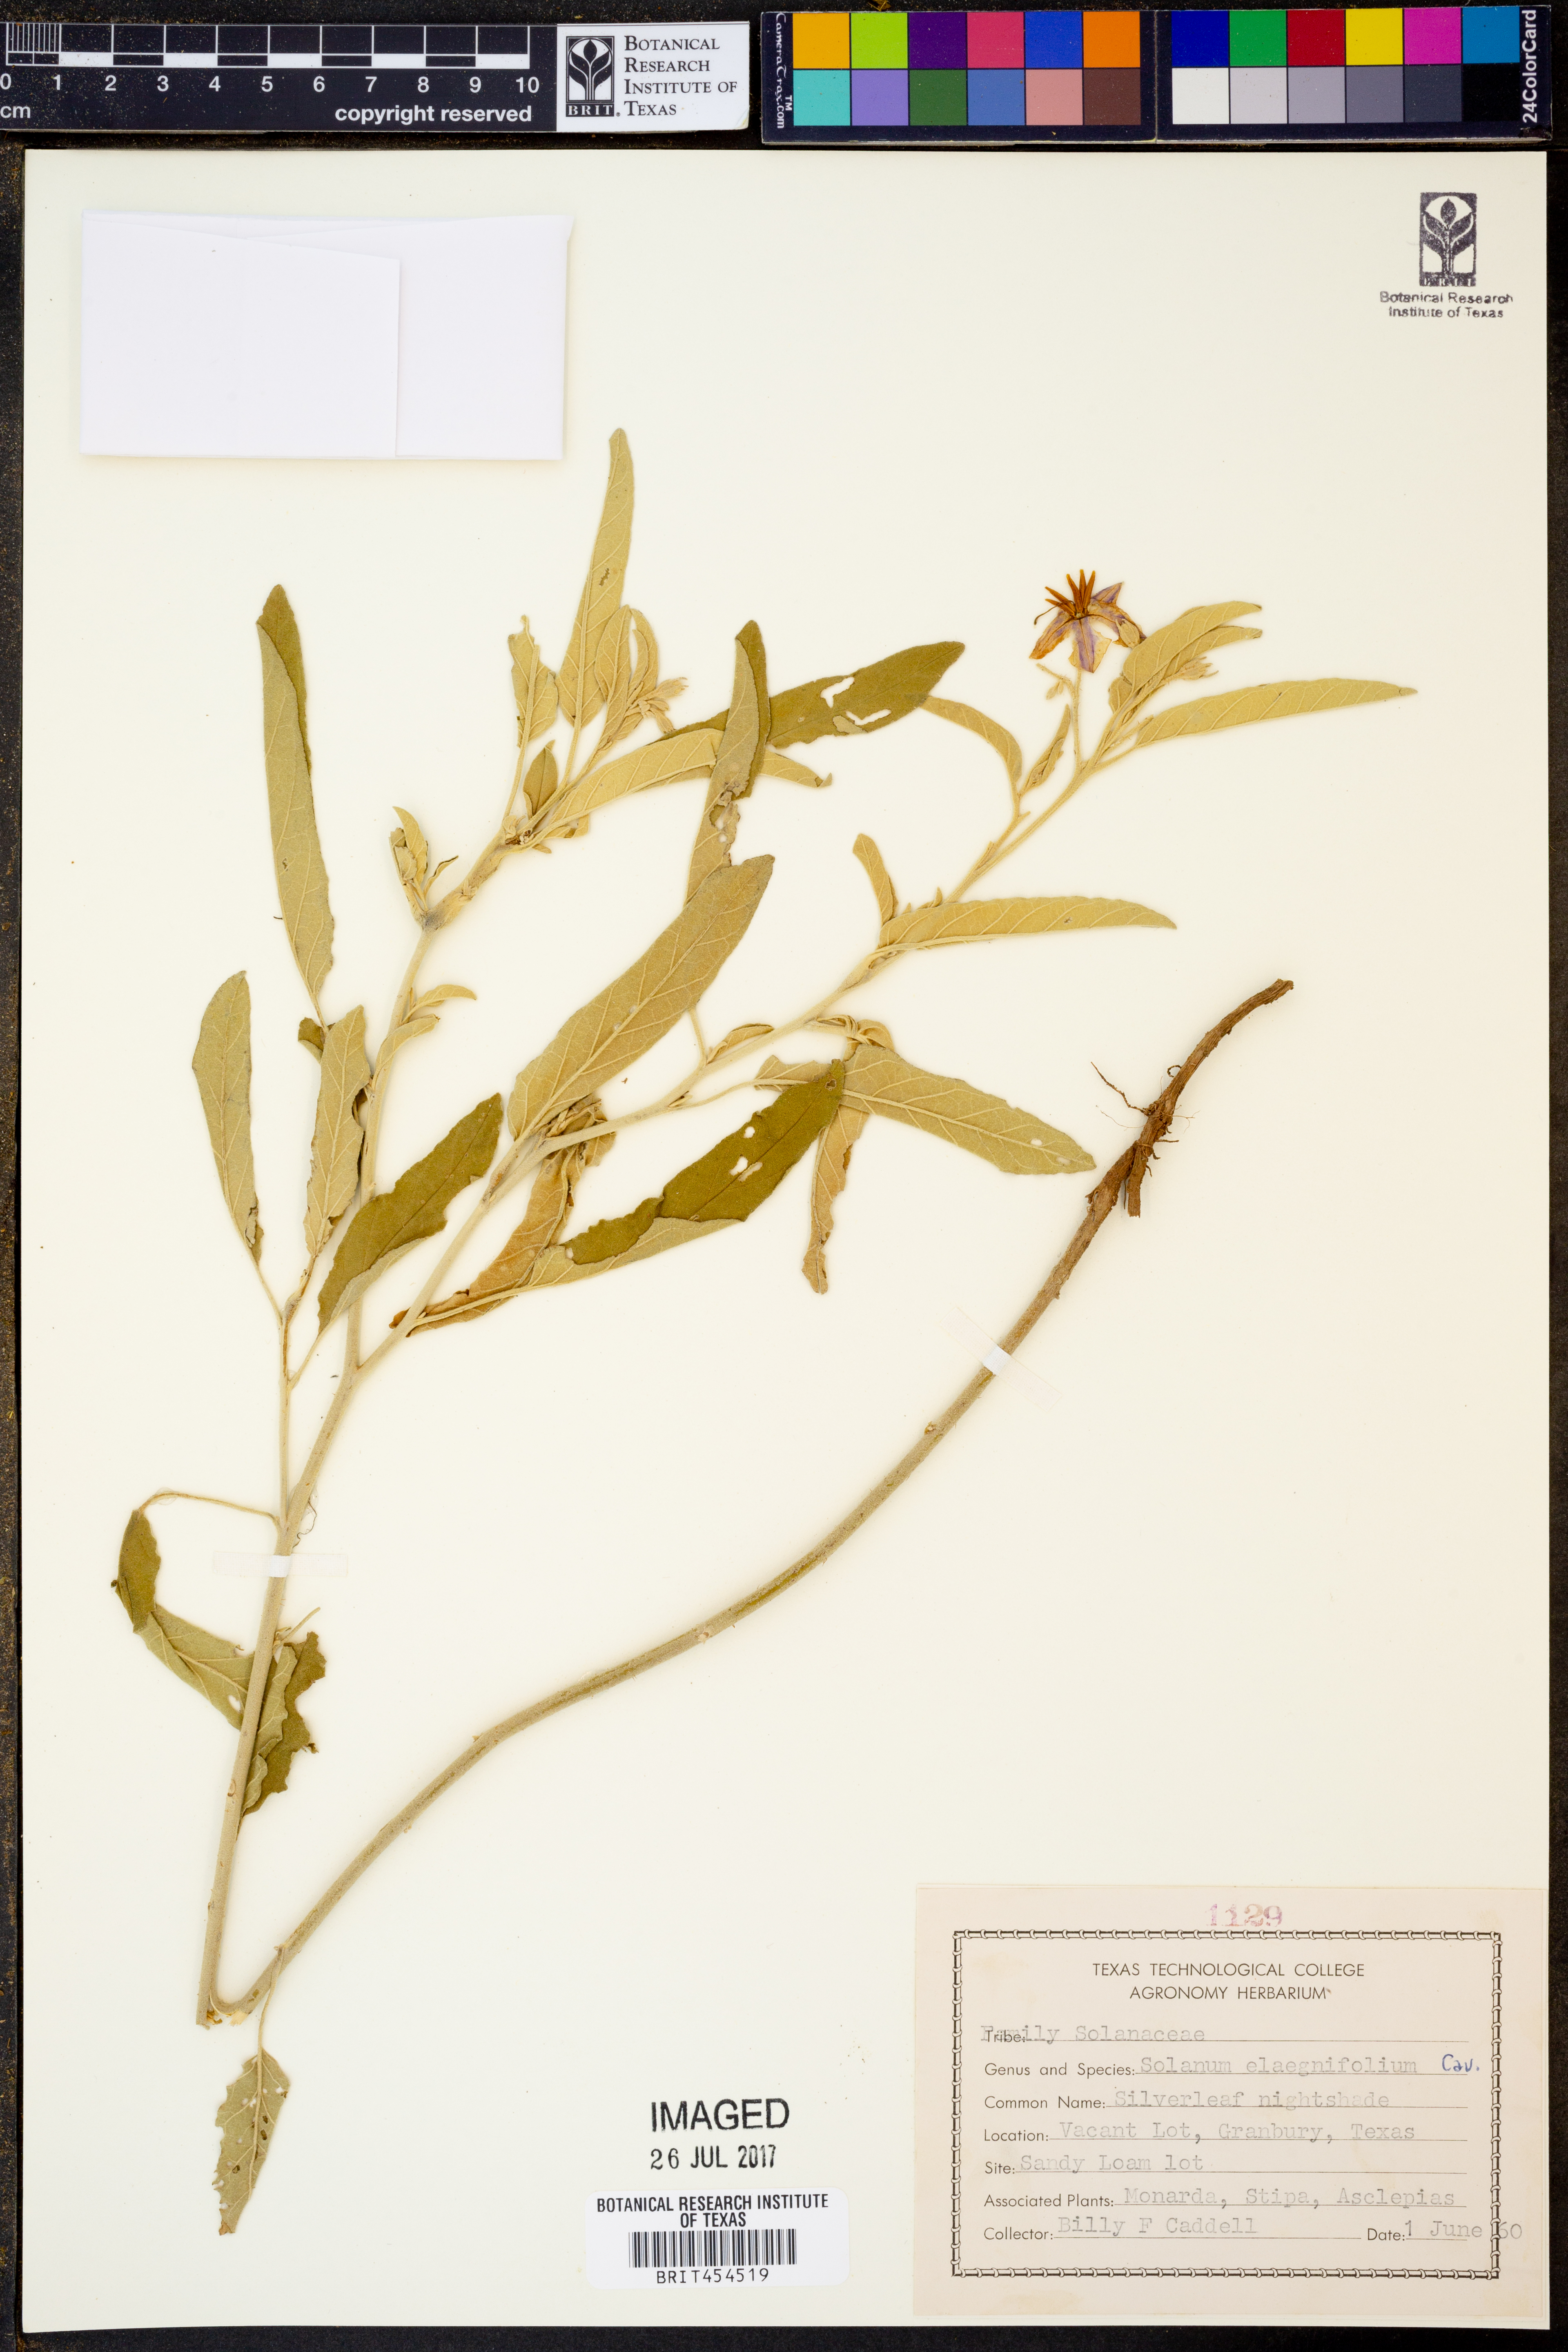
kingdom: Plantae
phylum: Tracheophyta
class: Magnoliopsida
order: Solanales
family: Solanaceae
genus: Solanum
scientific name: Solanum elaeagnifolium
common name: Silverleaf nightshade
